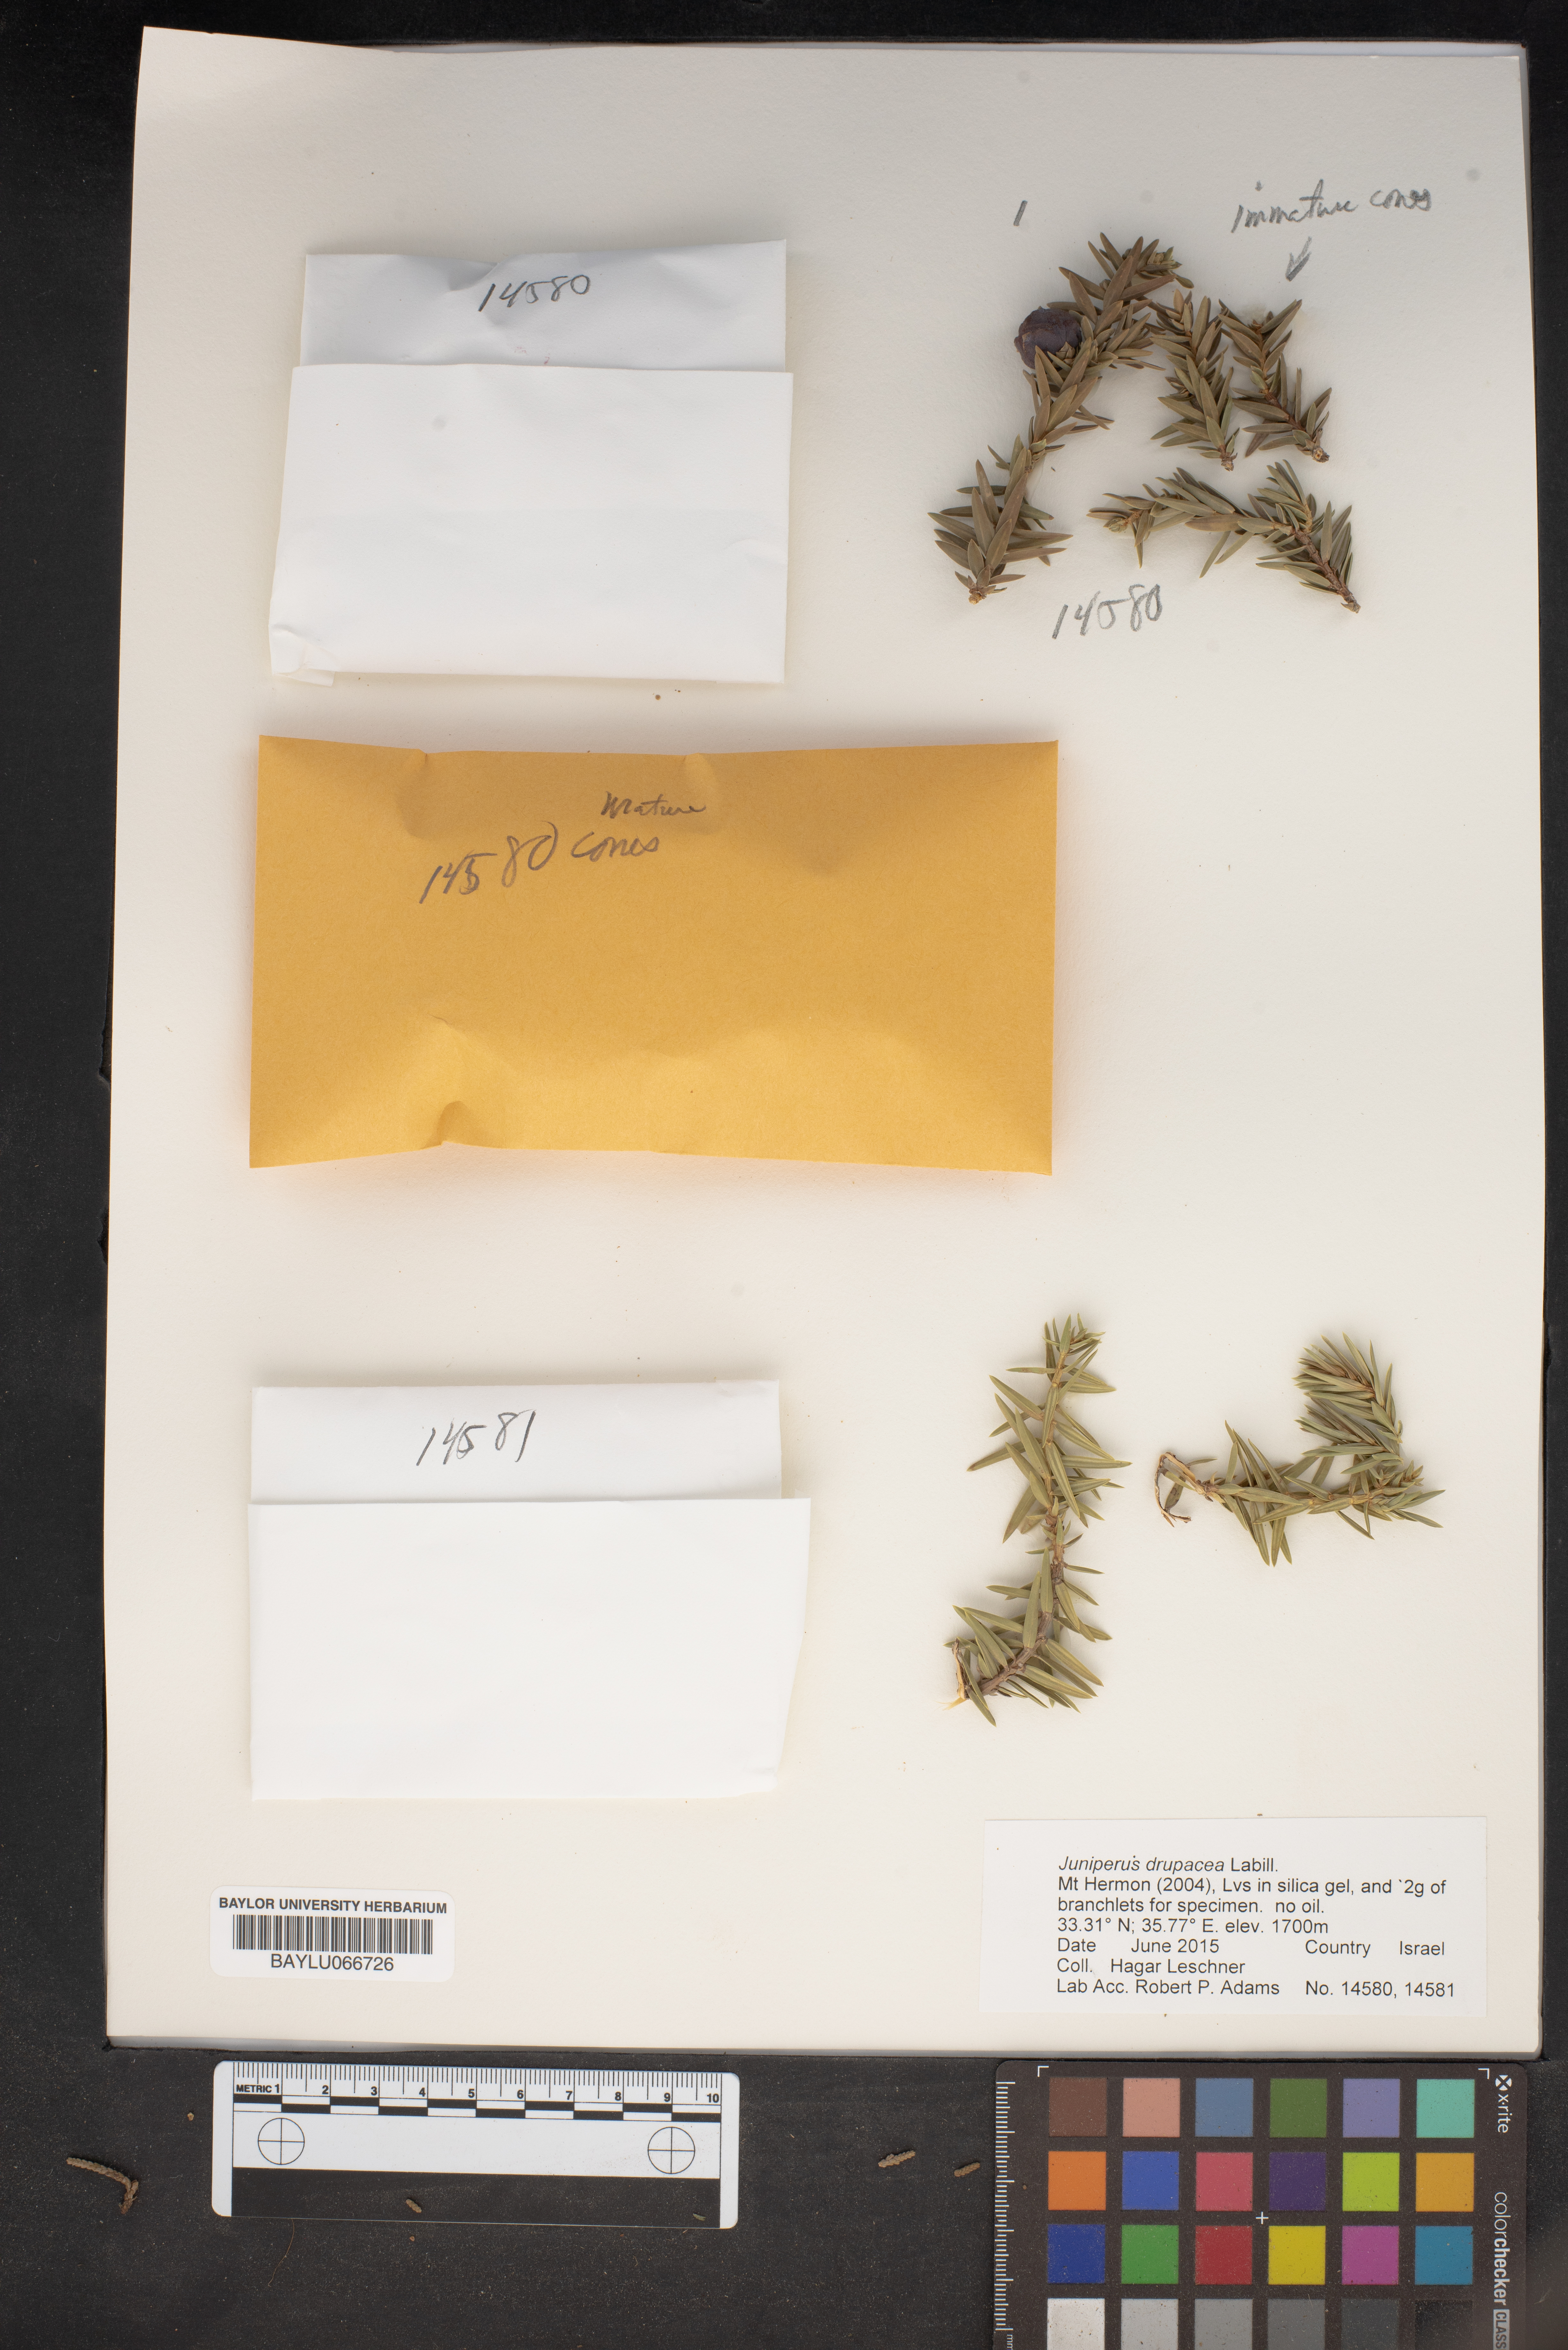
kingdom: Plantae
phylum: Tracheophyta
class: Pinopsida
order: Pinales
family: Cupressaceae
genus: Juniperus
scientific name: Juniperus drupacea
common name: Syrian juniper
